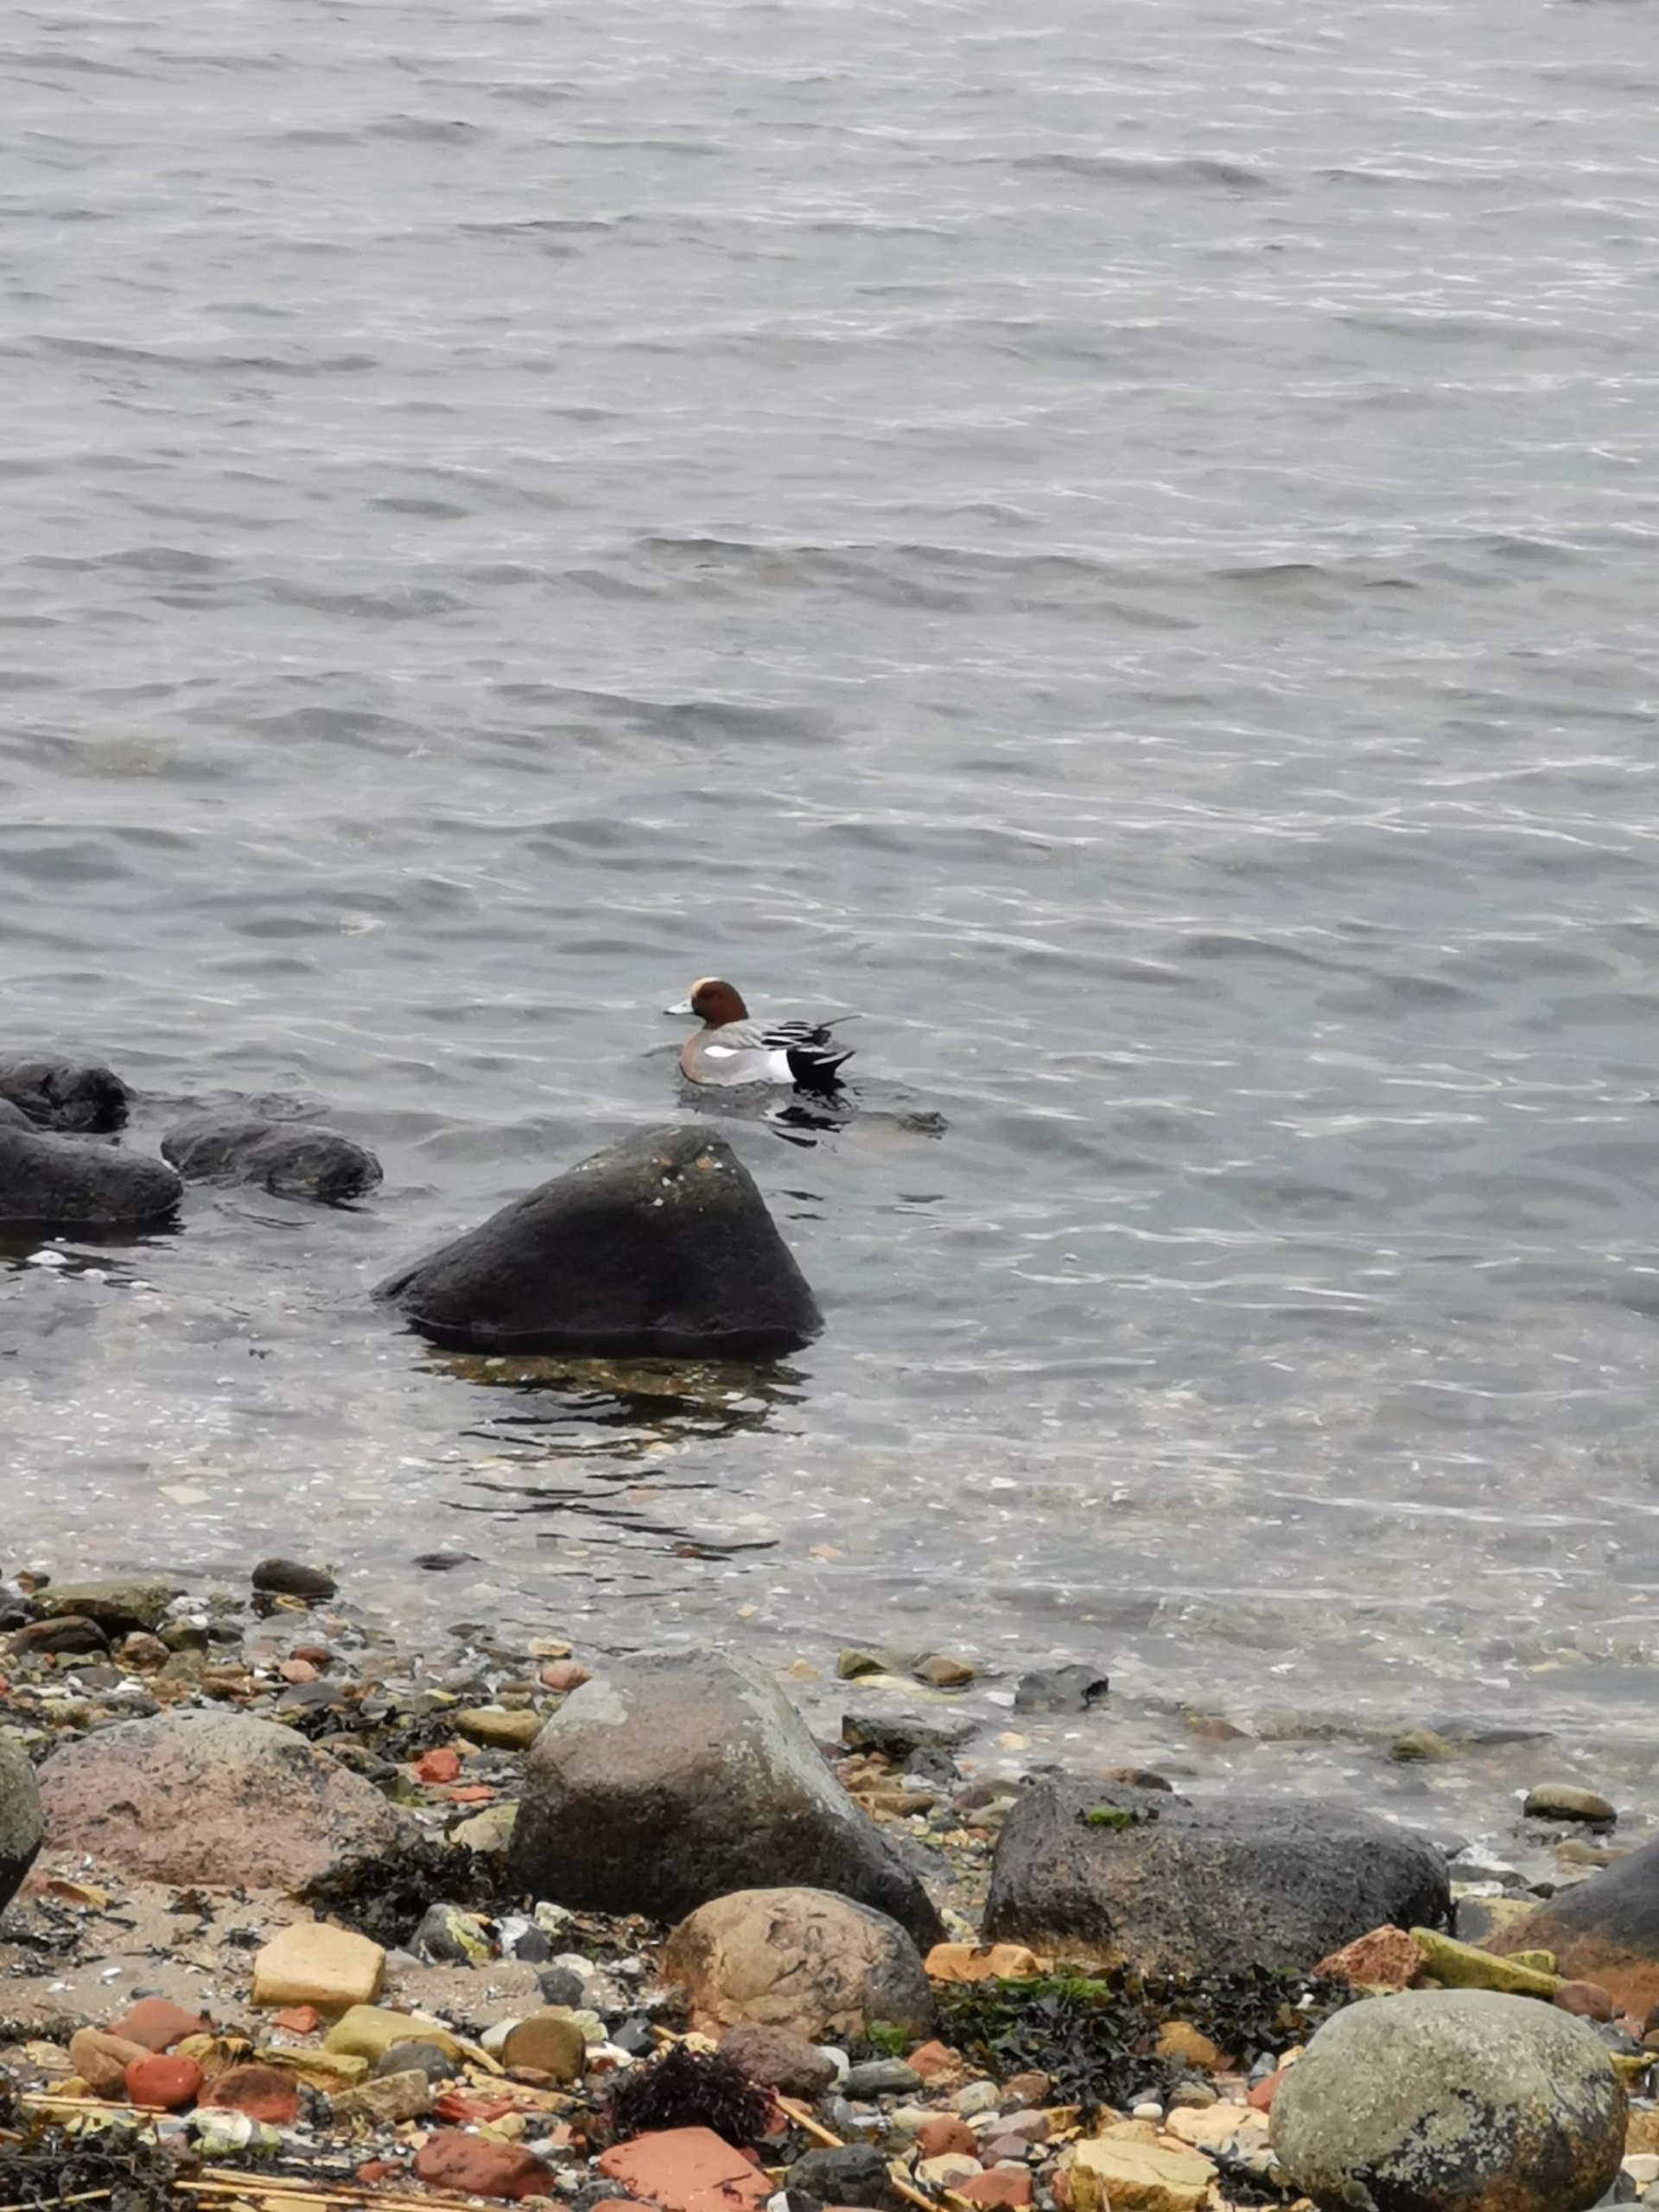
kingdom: Animalia
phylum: Chordata
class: Aves
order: Anseriformes
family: Anatidae
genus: Mareca
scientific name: Mareca penelope
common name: Pibeand
